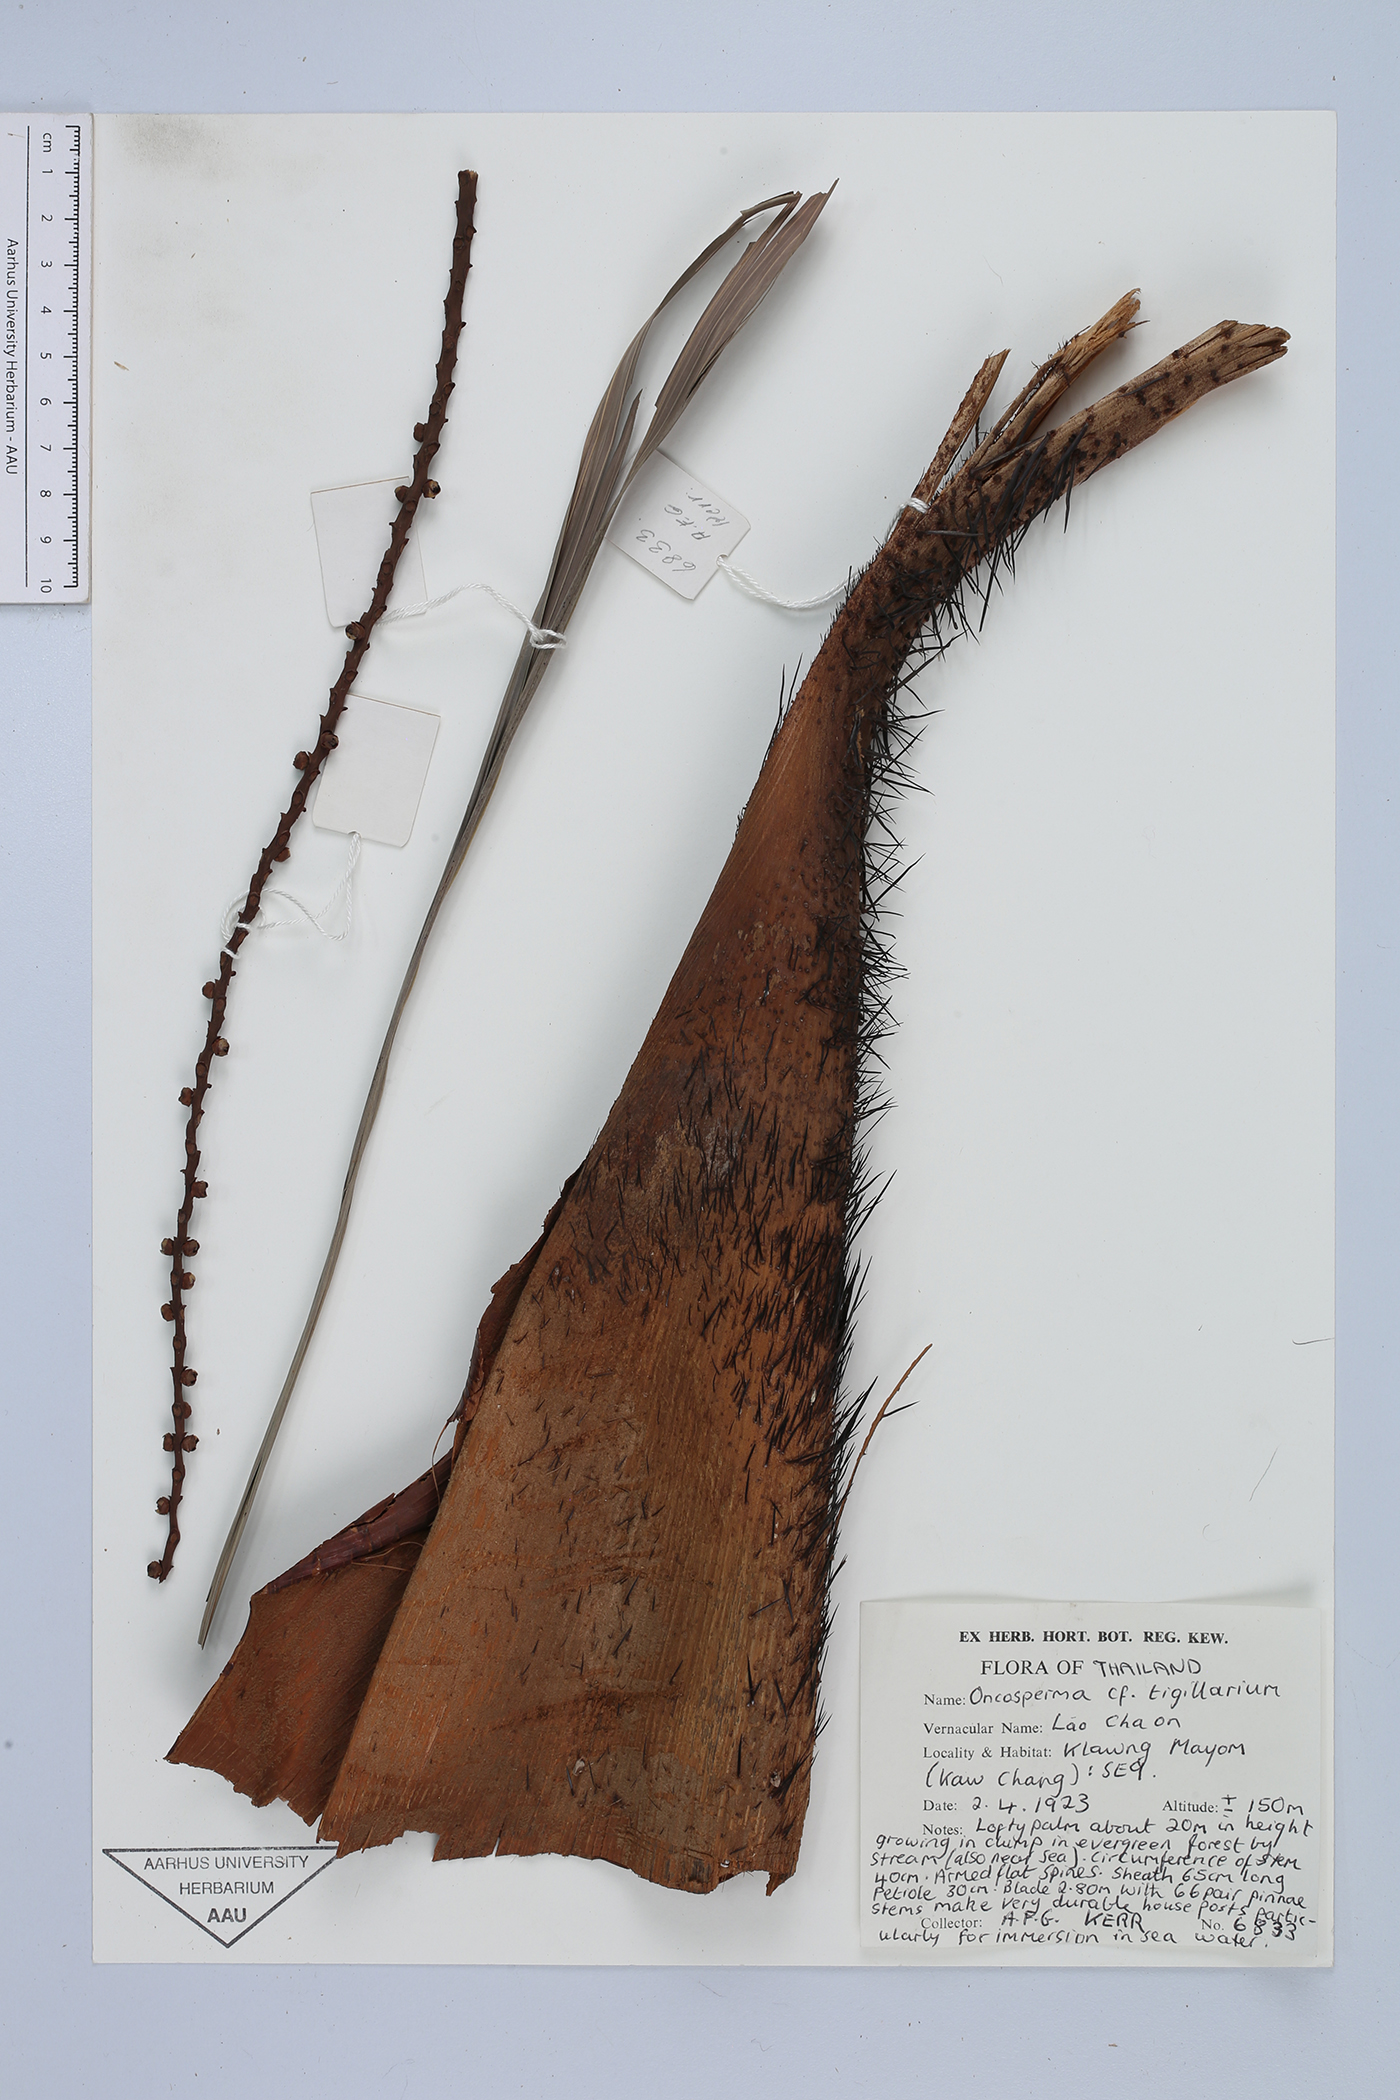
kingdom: Plantae
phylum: Tracheophyta
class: Liliopsida
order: Arecales
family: Arecaceae
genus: Oncosperma
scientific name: Oncosperma tigillarium
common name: Nibong
